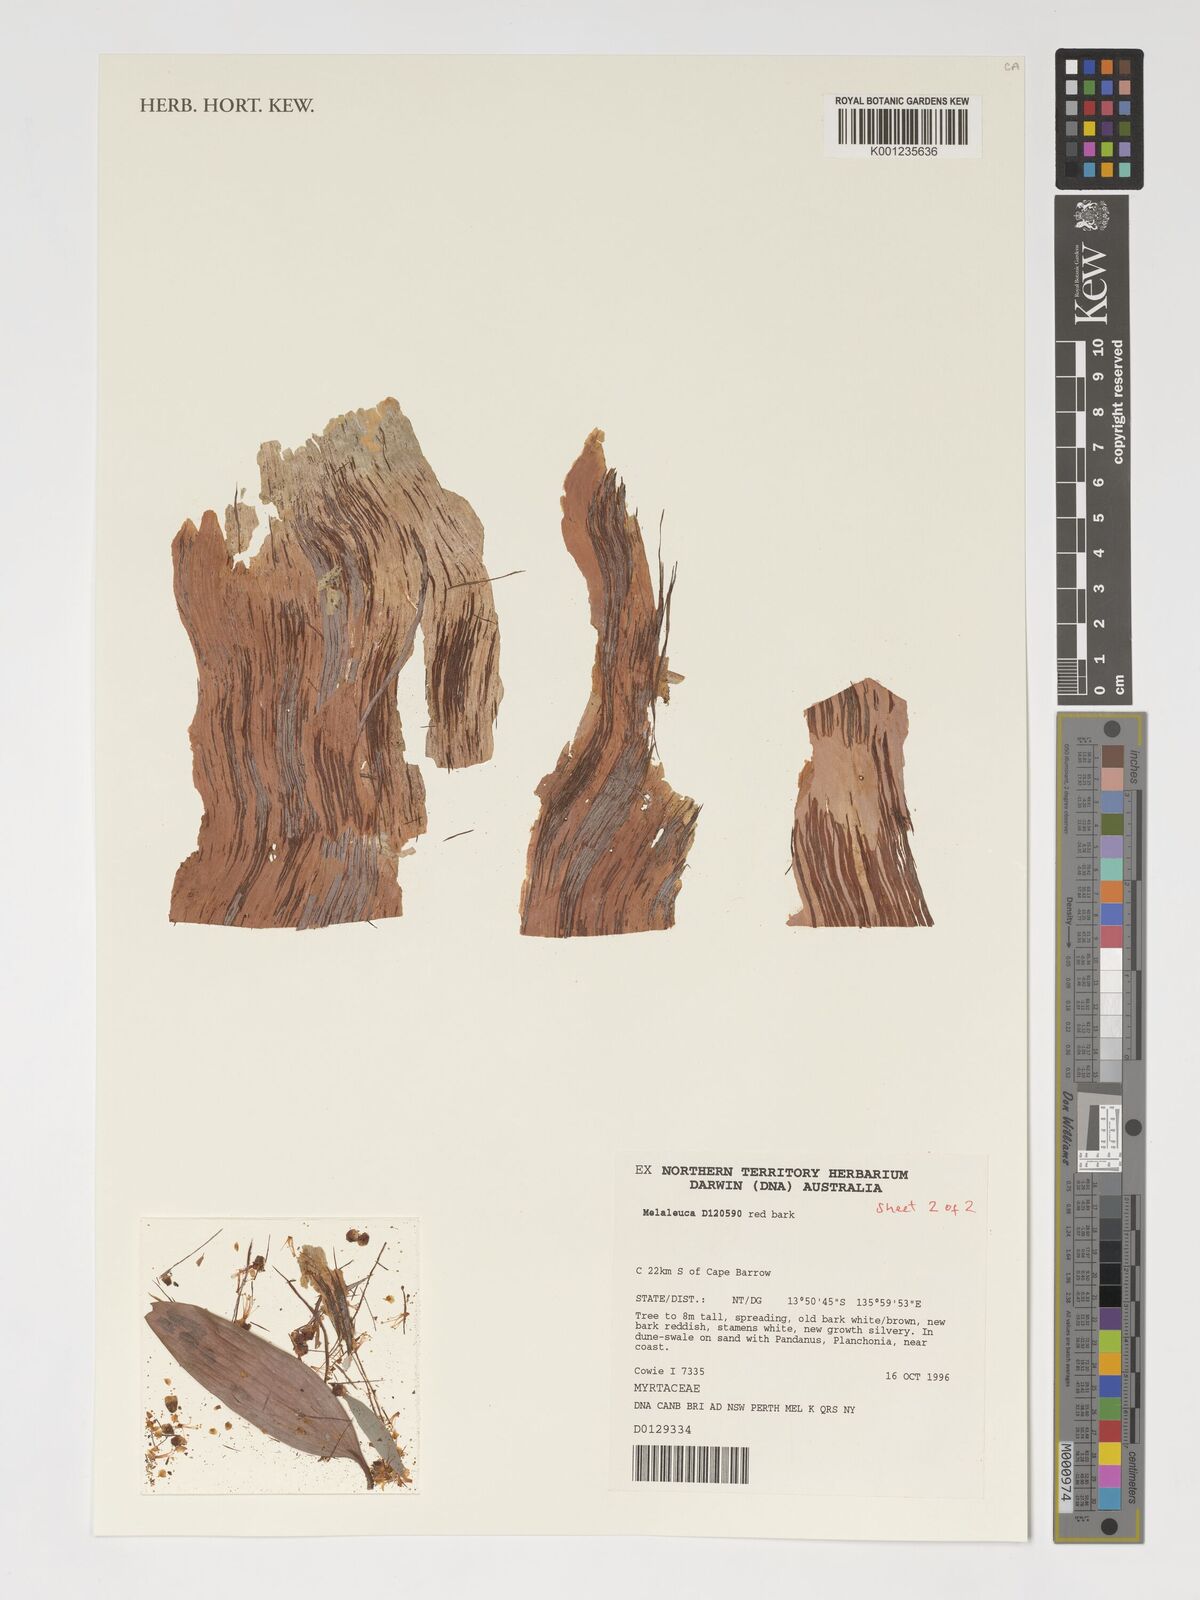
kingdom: Plantae
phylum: Tracheophyta
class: Magnoliopsida
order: Myrtales
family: Myrtaceae
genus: Melaleuca
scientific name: Melaleuca ferruginea
